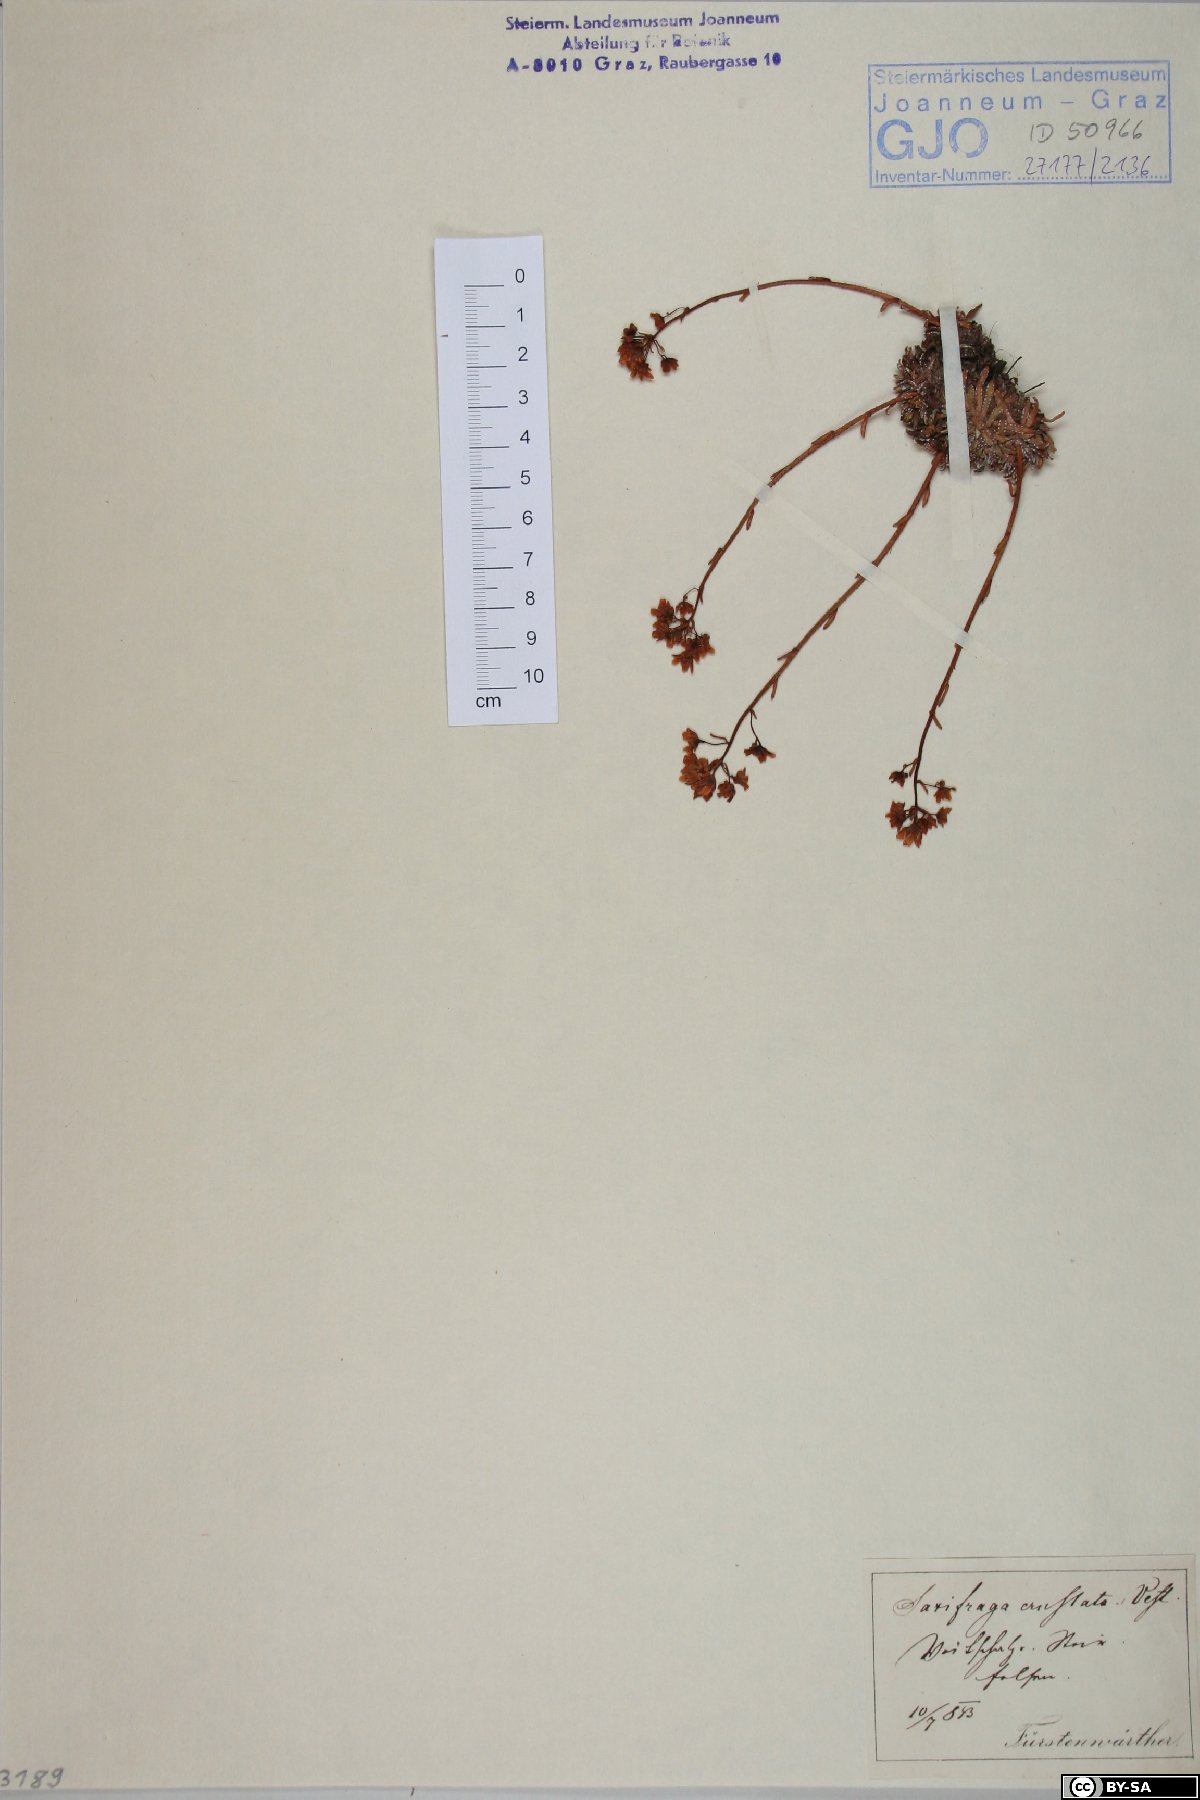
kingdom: Plantae
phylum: Tracheophyta
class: Magnoliopsida
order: Saxifragales
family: Saxifragaceae
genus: Saxifraga
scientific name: Saxifraga crustata
